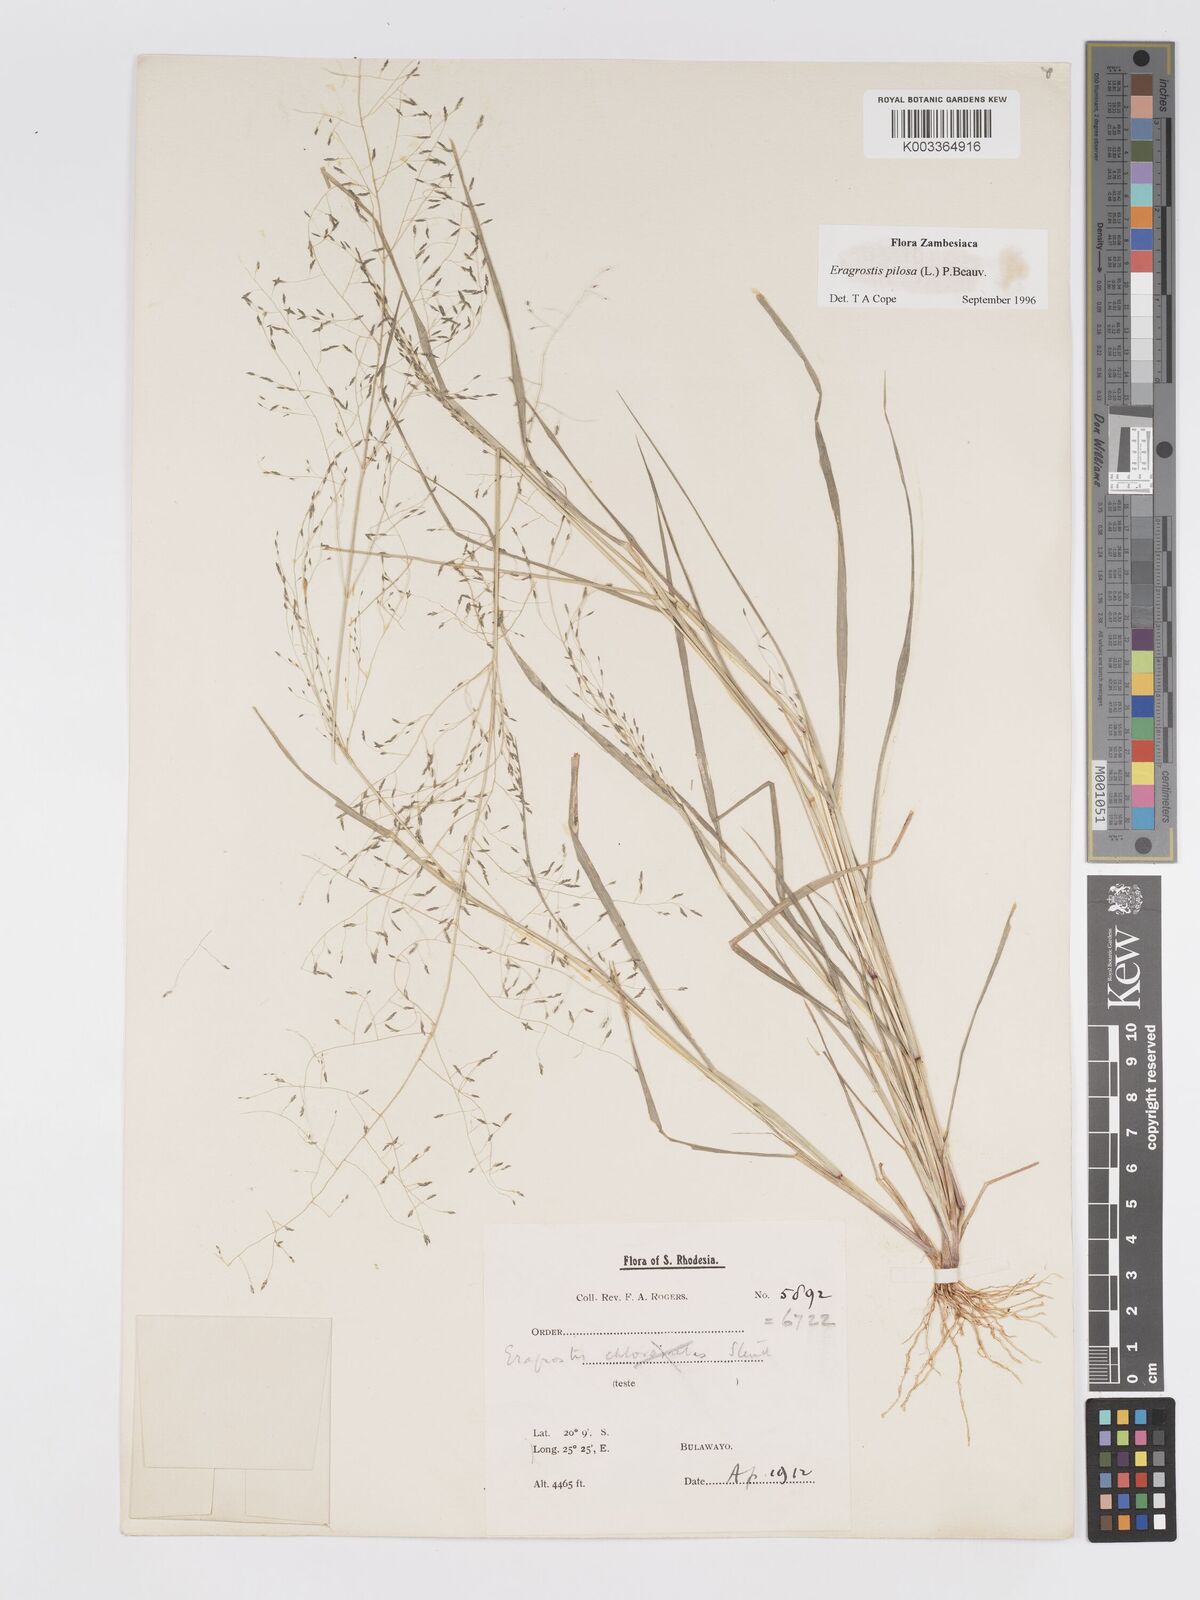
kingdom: Plantae
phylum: Tracheophyta
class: Liliopsida
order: Poales
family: Poaceae
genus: Eragrostis
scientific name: Eragrostis pilosa
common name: Indian lovegrass
